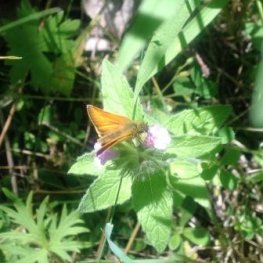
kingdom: Animalia
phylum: Arthropoda
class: Insecta
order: Lepidoptera
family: Hesperiidae
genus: Thymelicus
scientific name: Thymelicus lineola
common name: European Skipper
